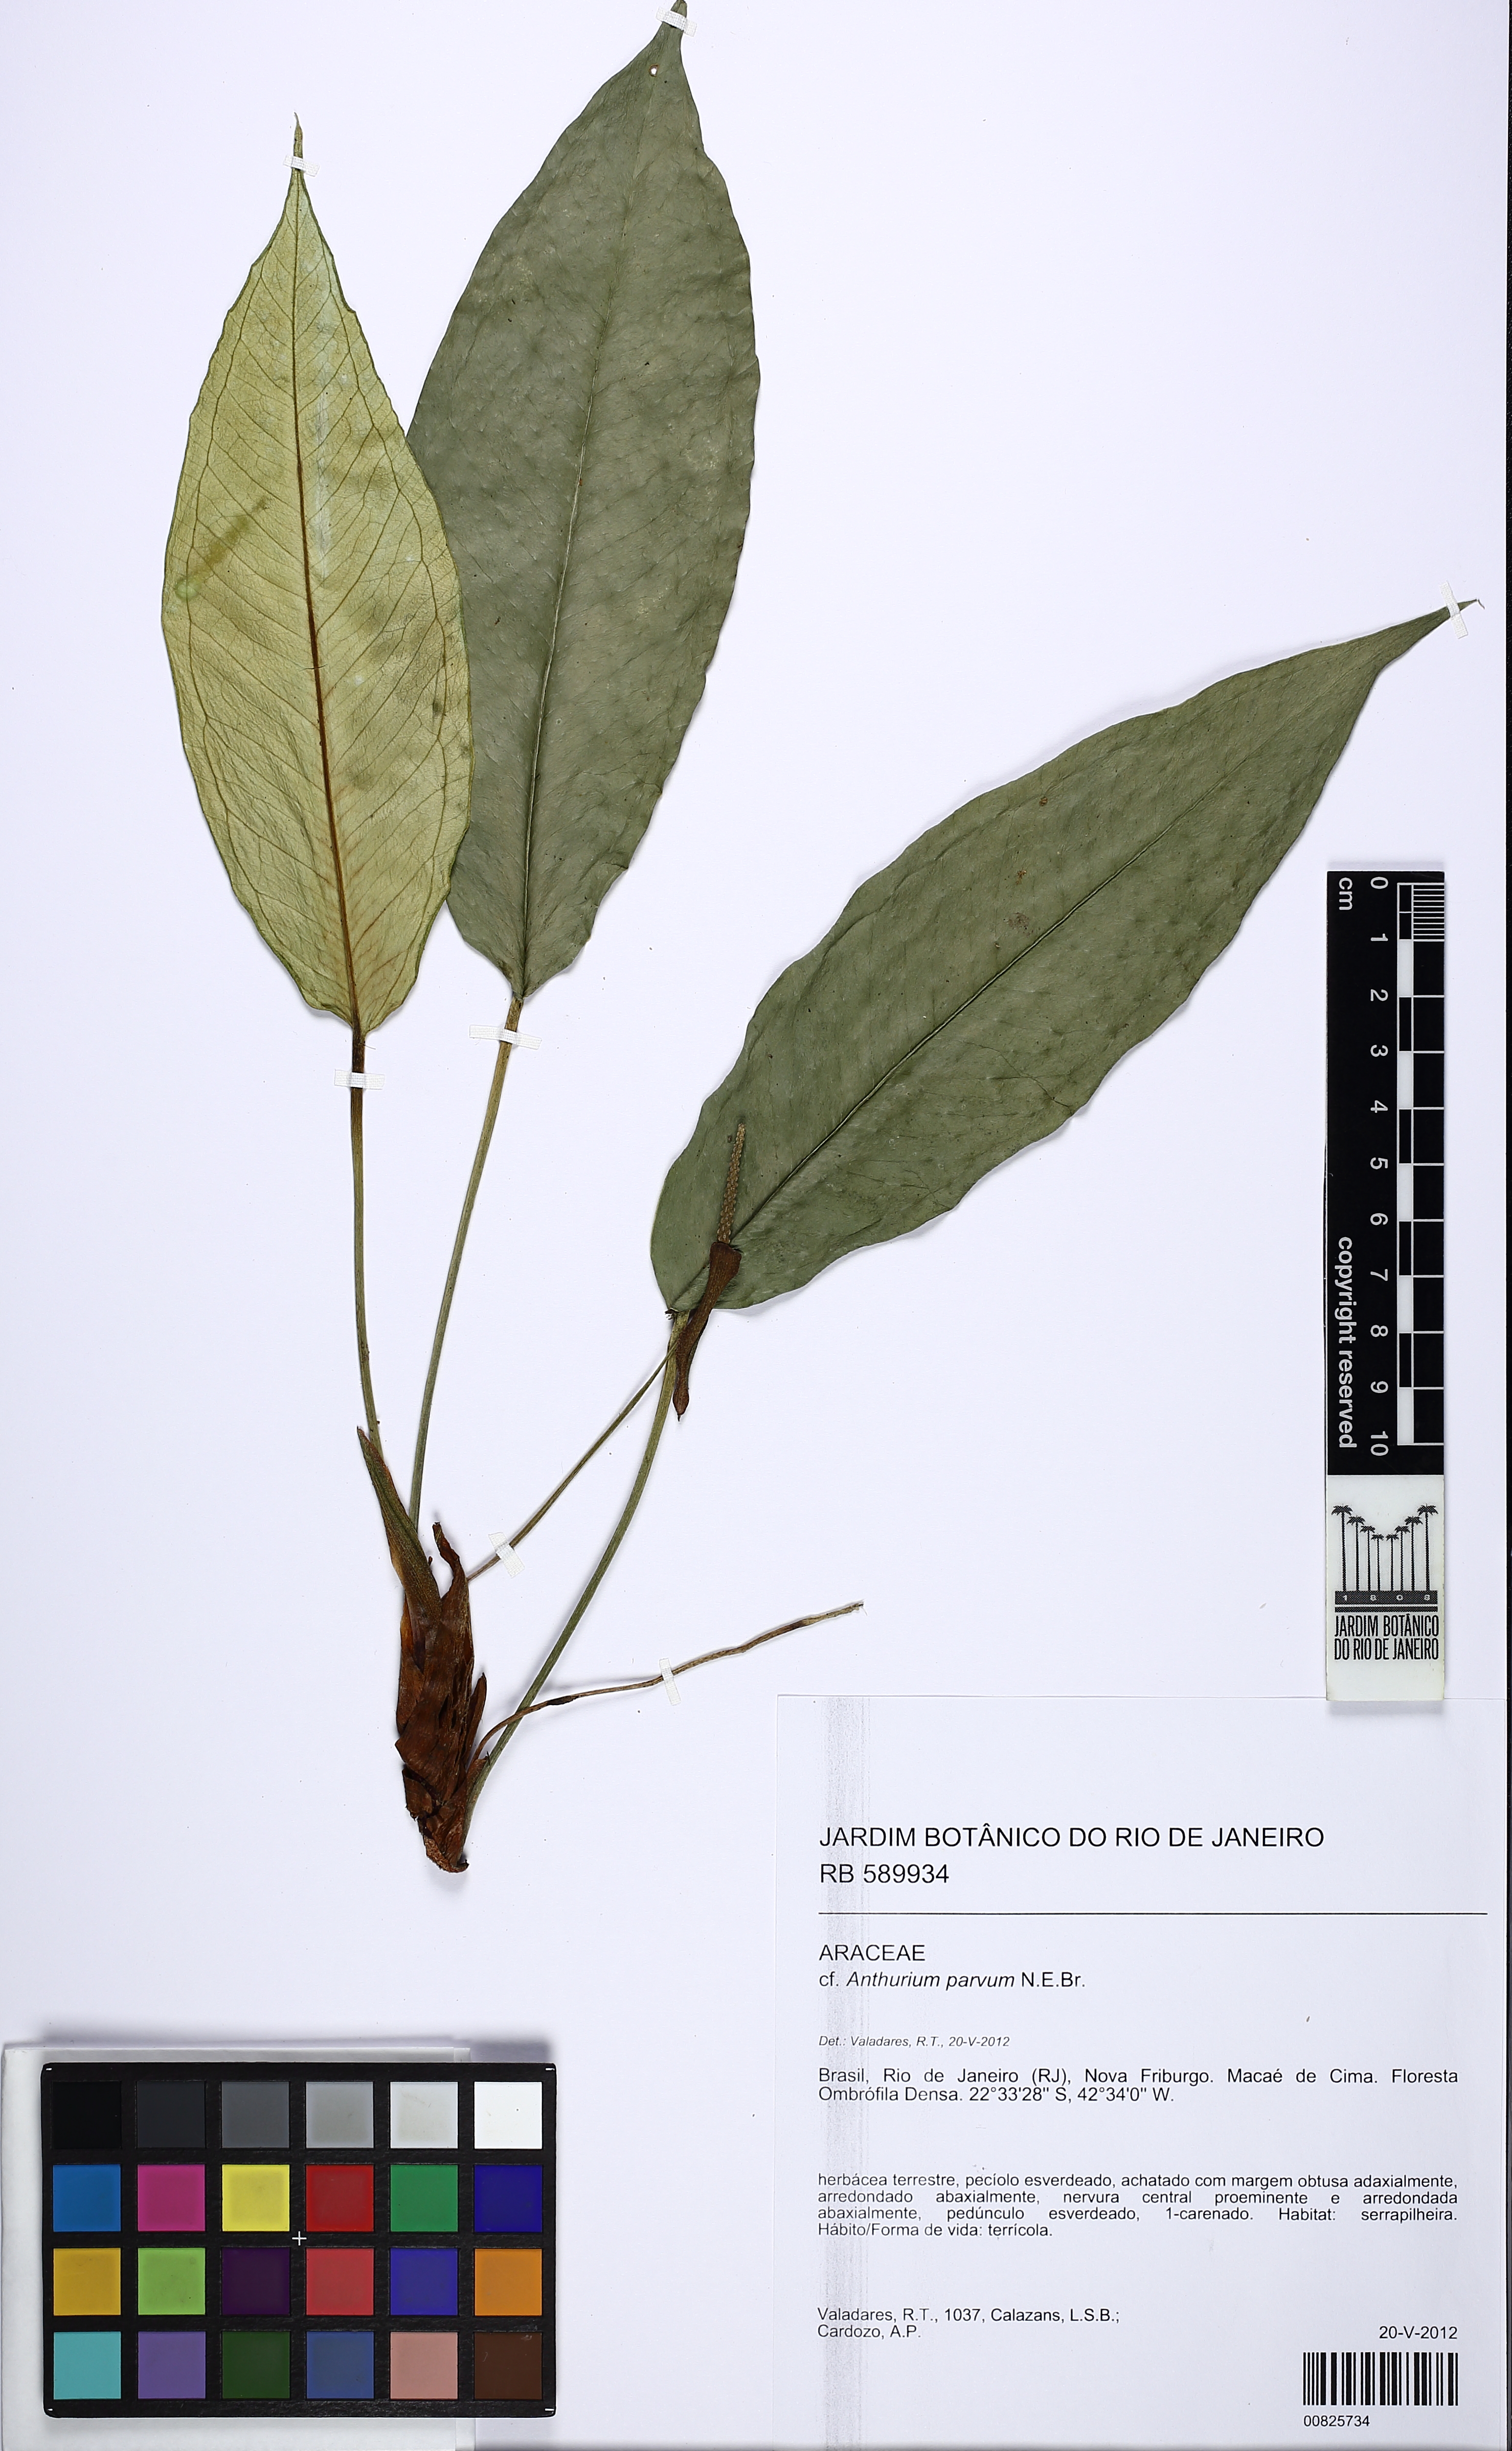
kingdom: Plantae
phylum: Tracheophyta
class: Liliopsida
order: Alismatales
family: Araceae
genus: Anthurium
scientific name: Anthurium parvum
